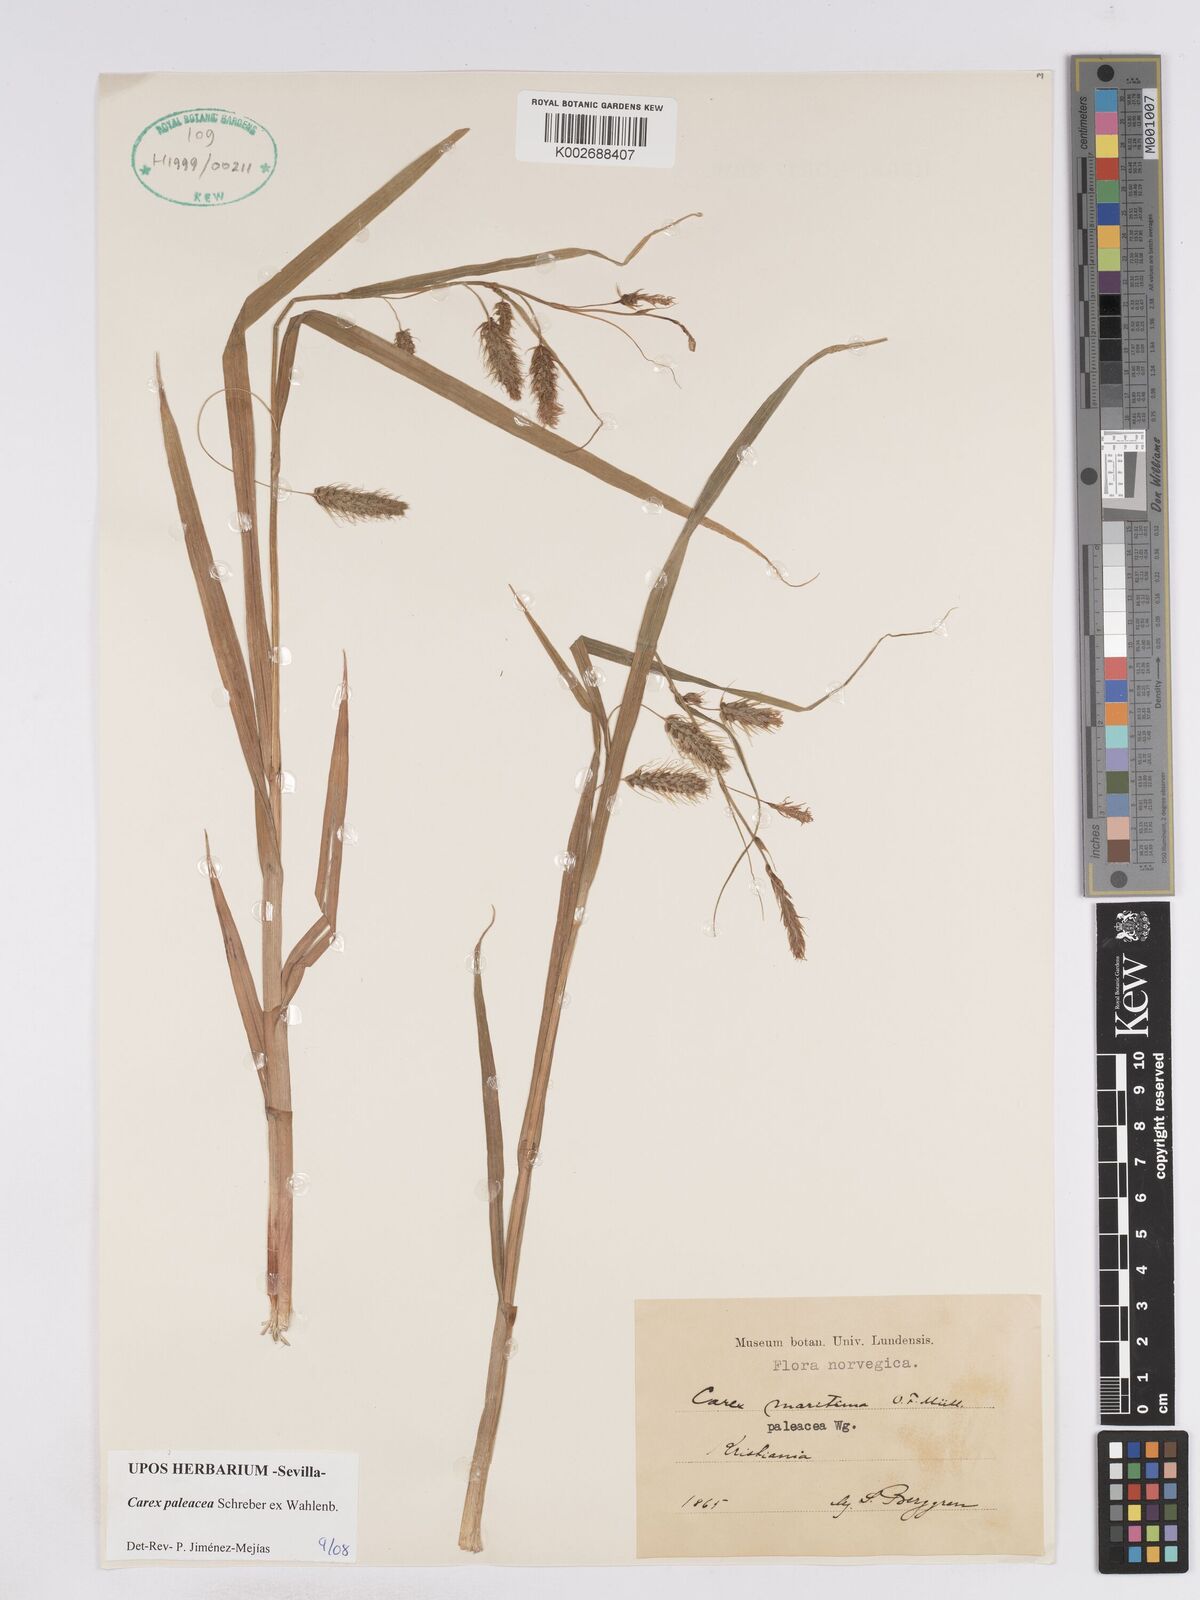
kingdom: Plantae
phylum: Tracheophyta
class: Liliopsida
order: Poales
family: Cyperaceae
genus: Carex
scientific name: Carex paleacea
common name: Chaffy sedge
